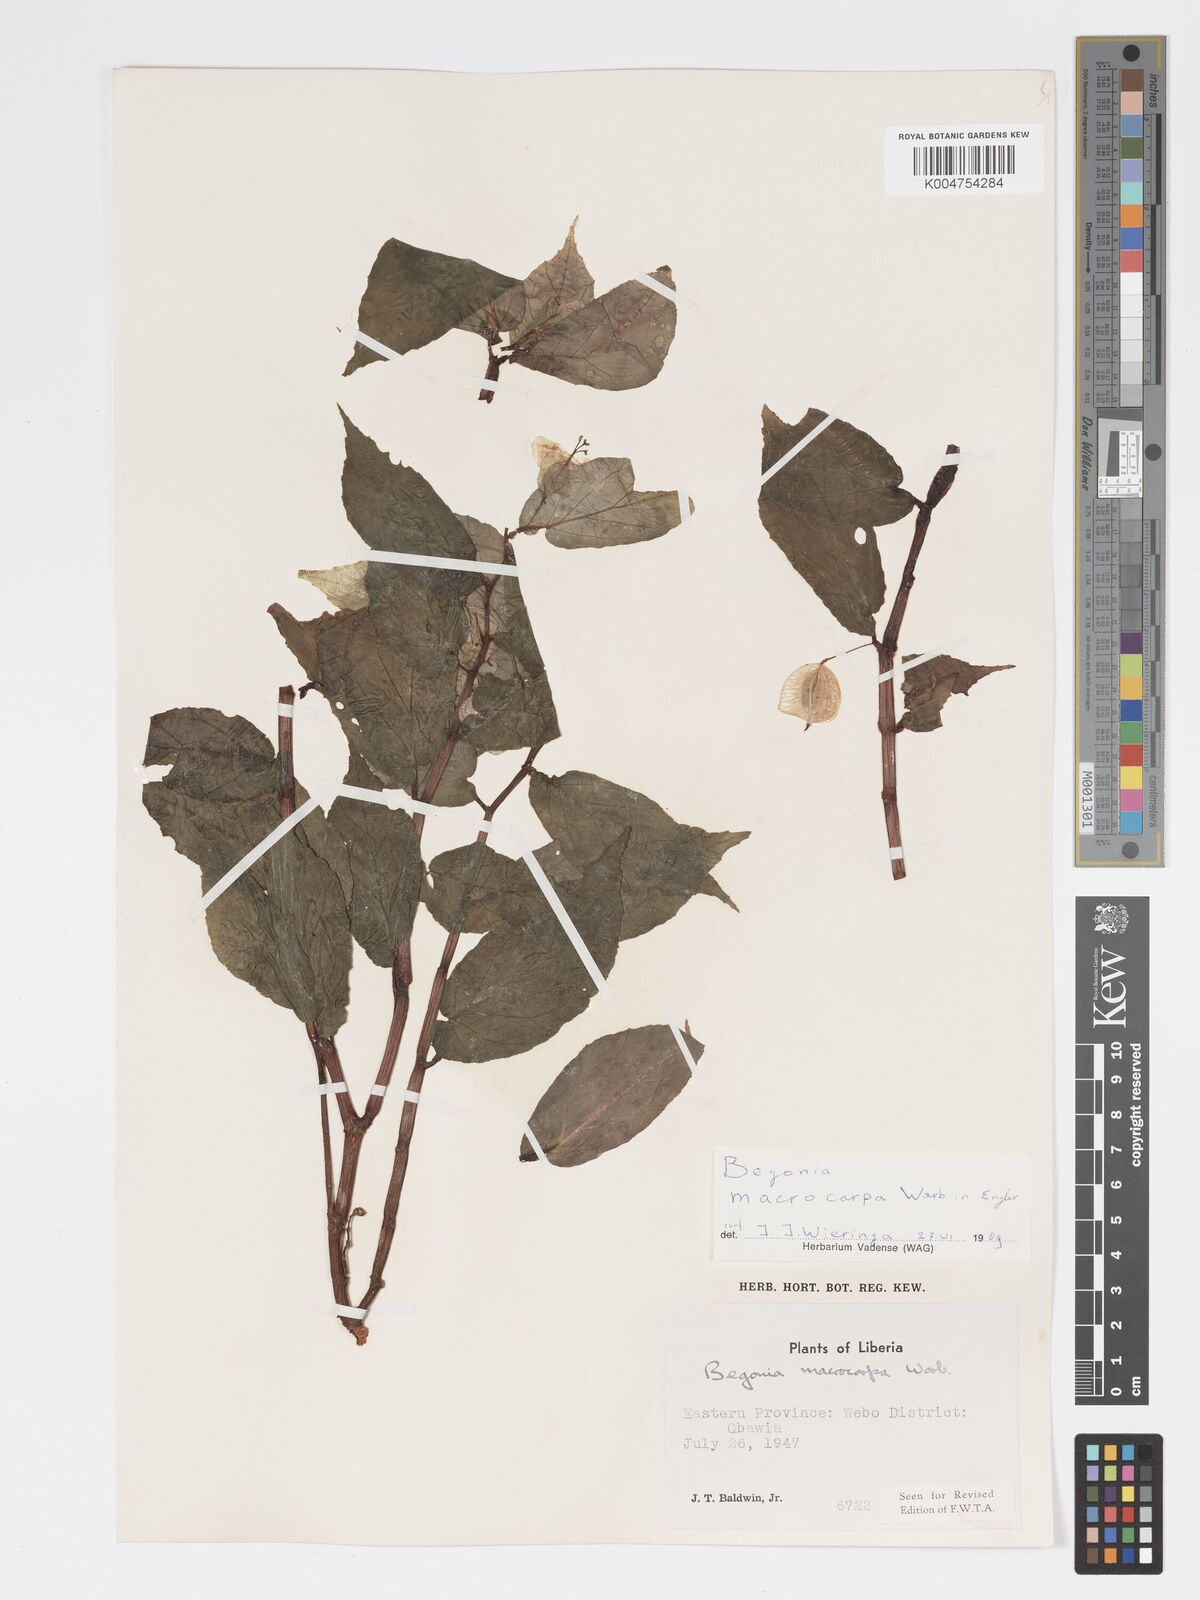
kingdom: Plantae
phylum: Tracheophyta
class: Magnoliopsida
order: Cucurbitales
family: Begoniaceae
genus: Begonia
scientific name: Begonia macrocarpa
